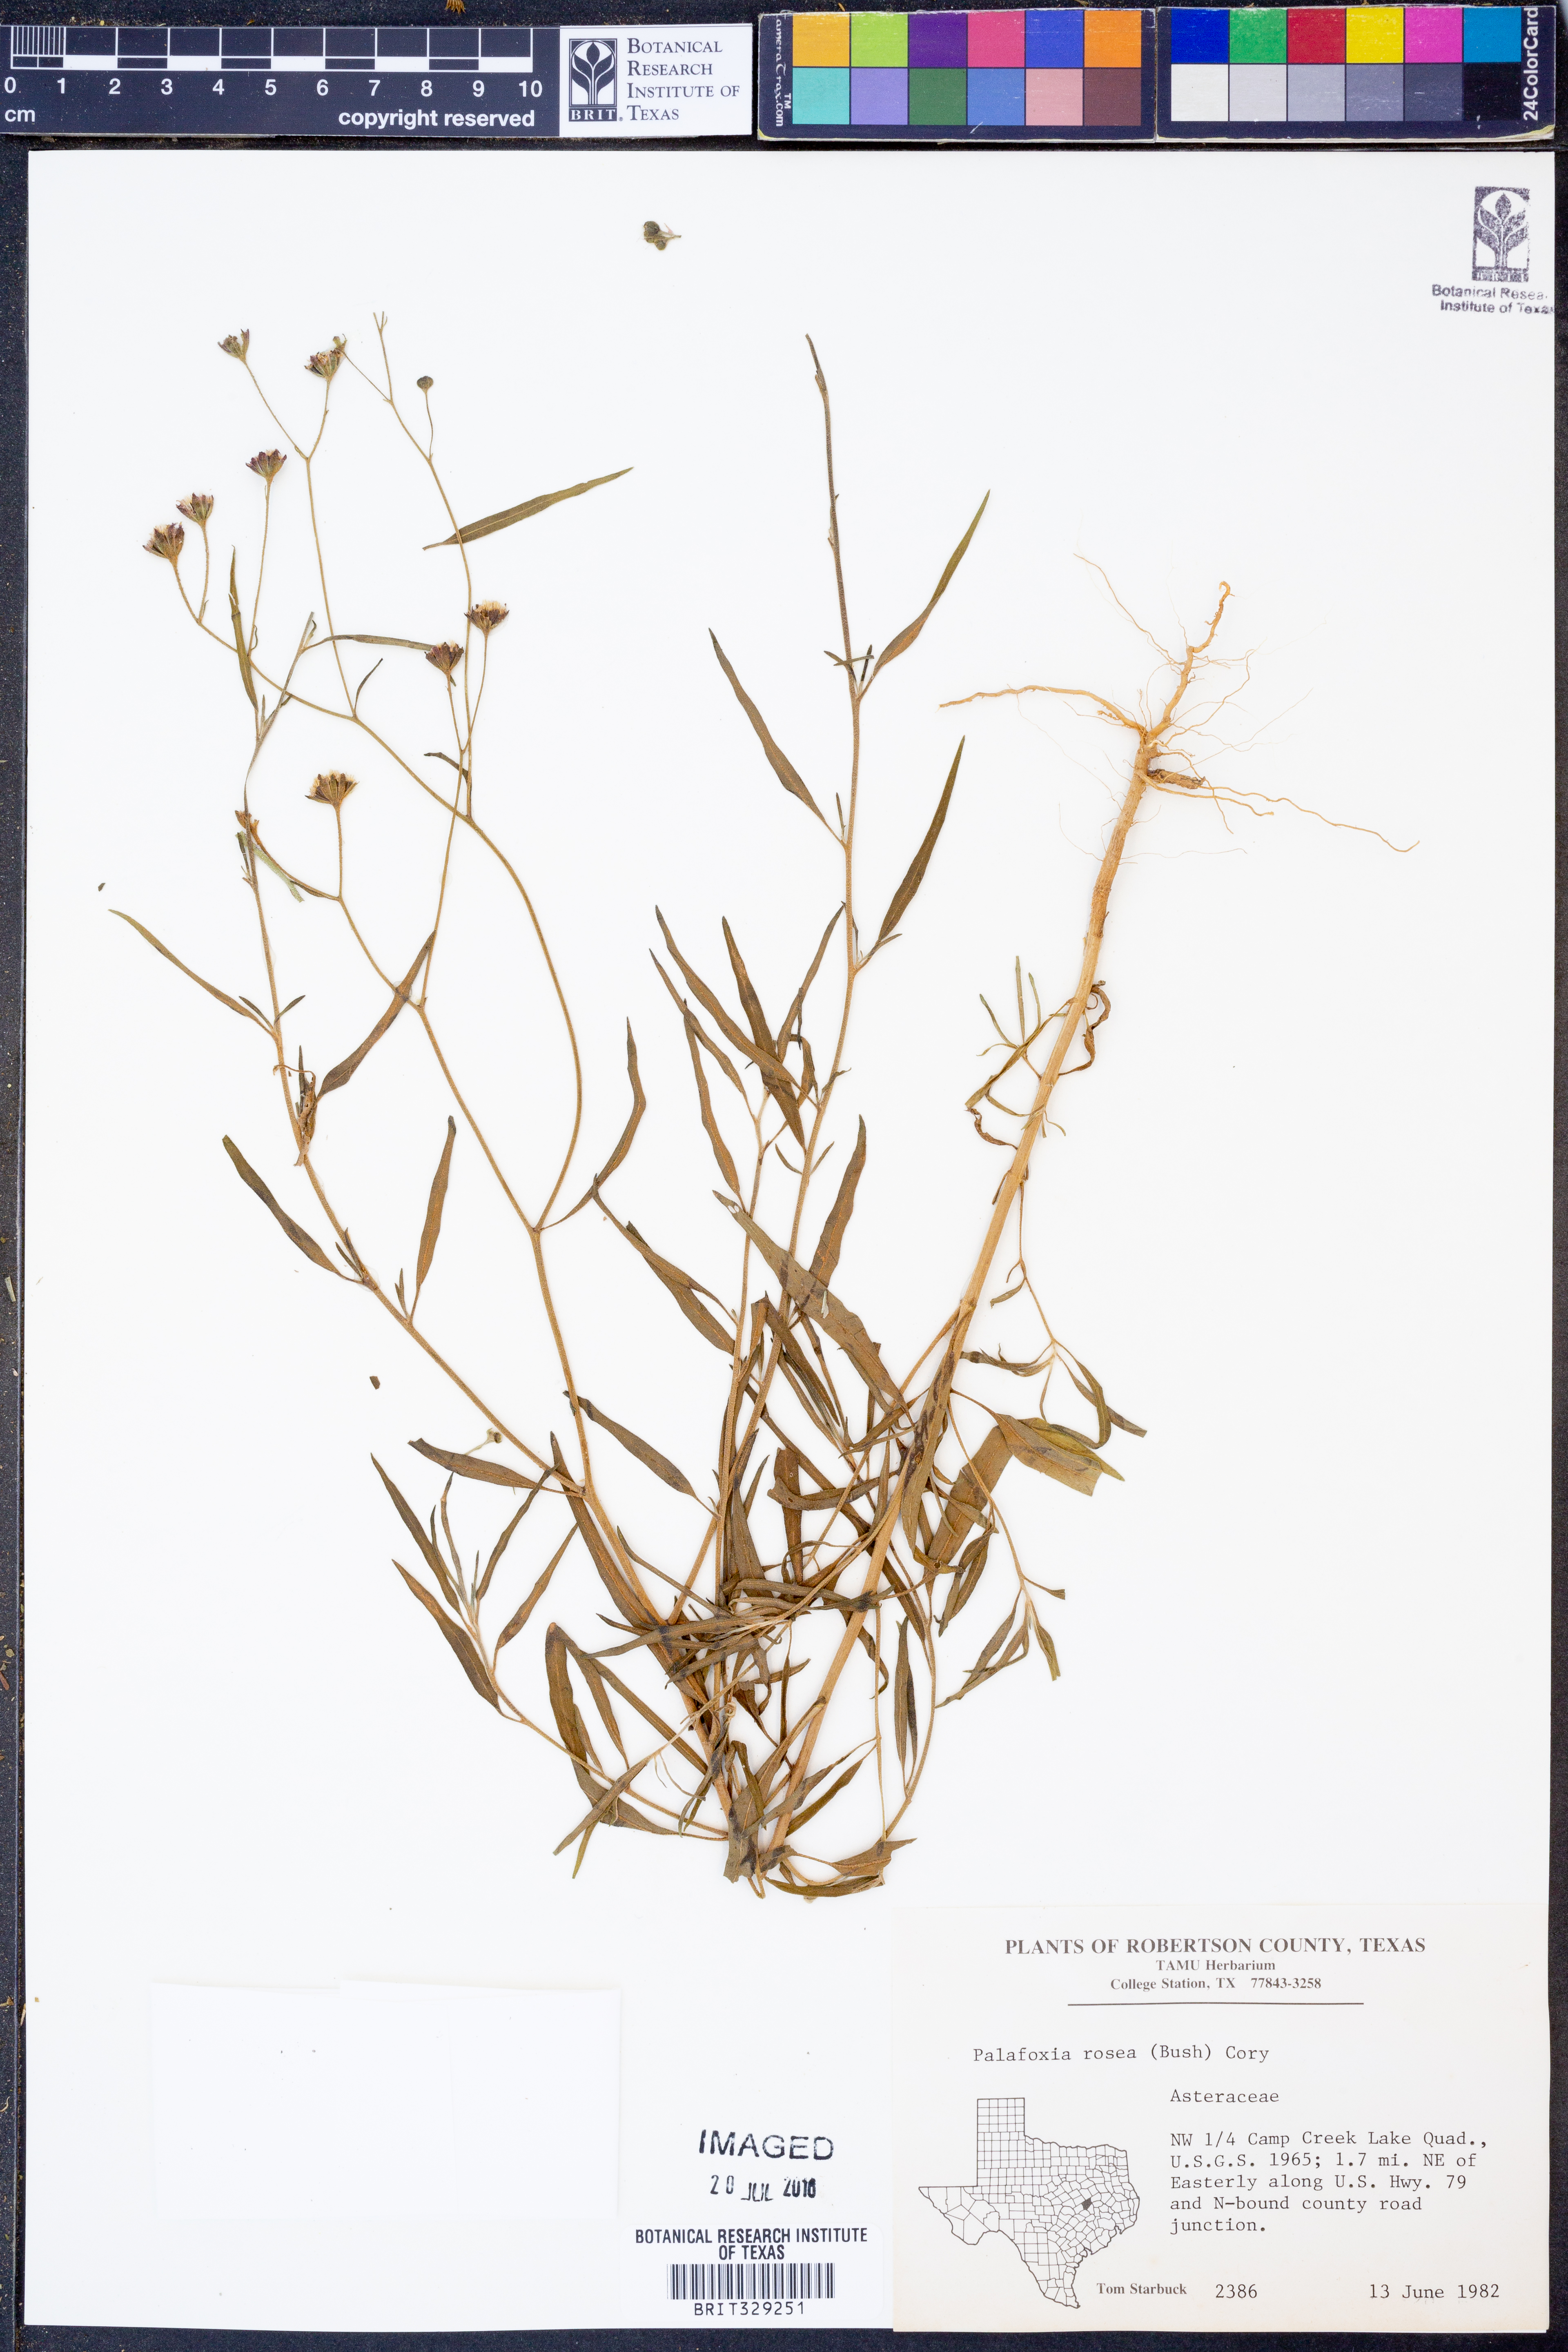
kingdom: Plantae
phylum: Tracheophyta
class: Magnoliopsida
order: Asterales
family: Asteraceae
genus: Palafoxia
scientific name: Palafoxia rosea
